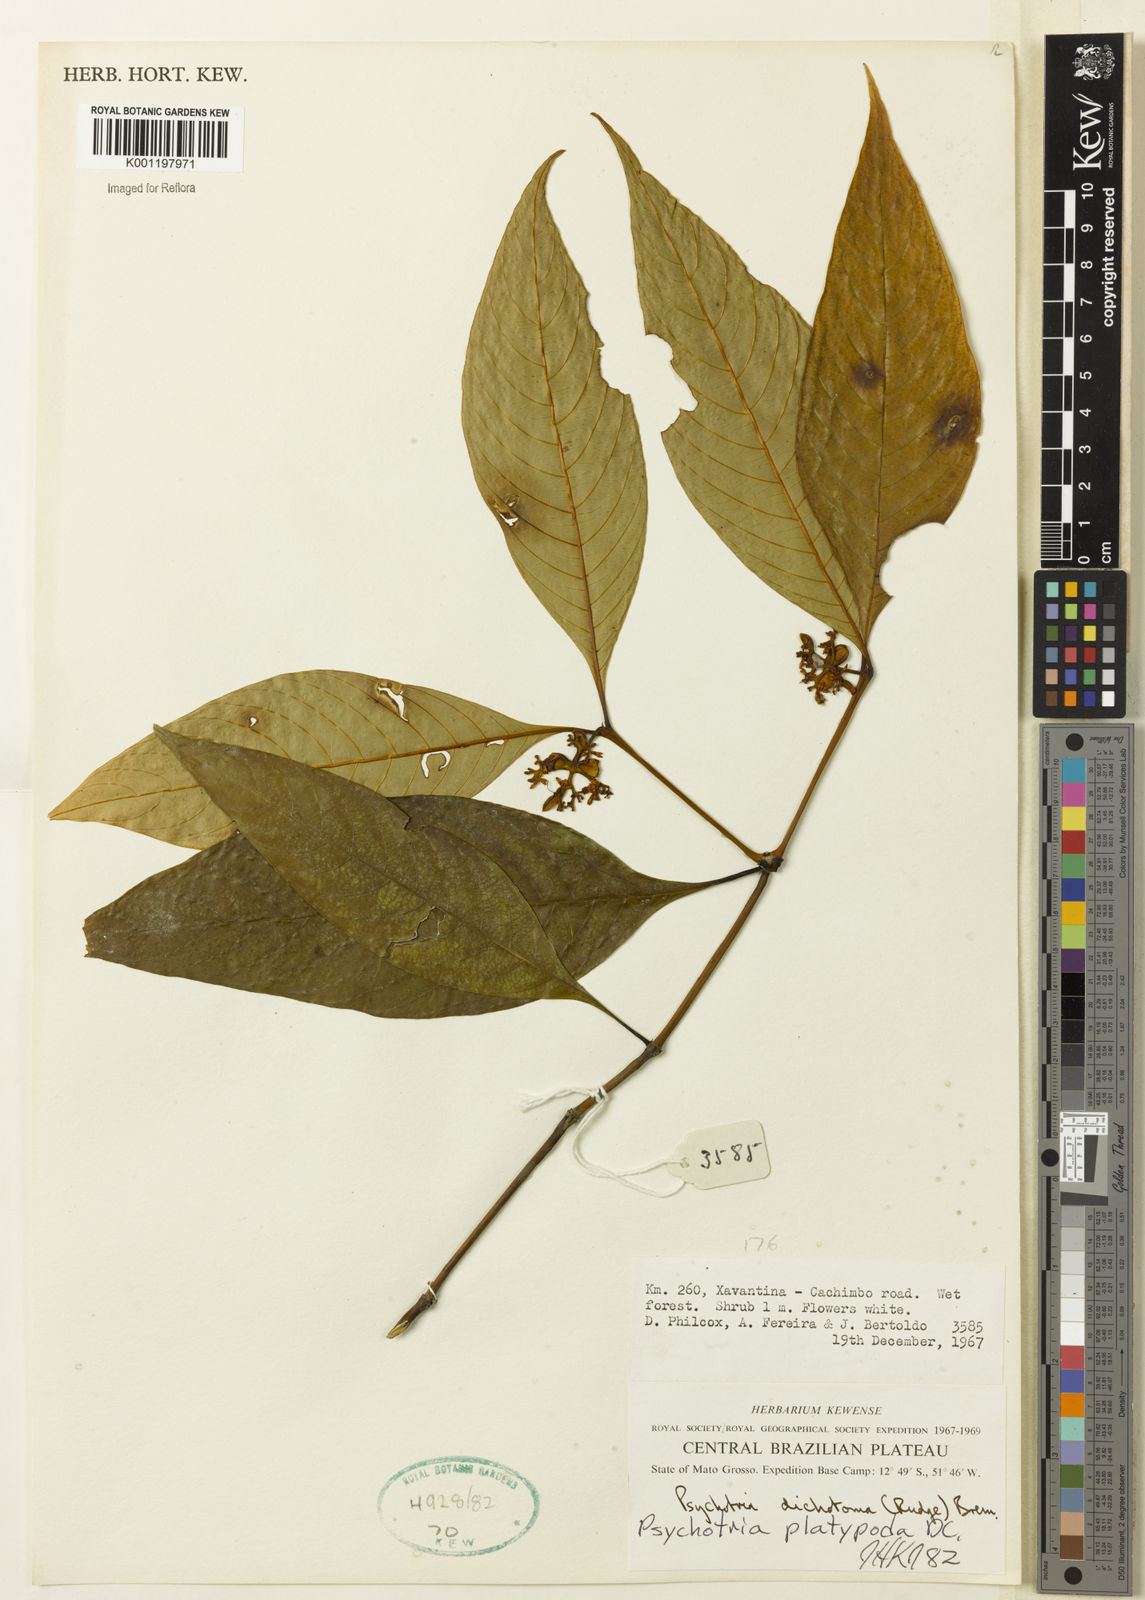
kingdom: Plantae
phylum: Tracheophyta
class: Magnoliopsida
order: Gentianales
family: Rubiaceae
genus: Palicourea
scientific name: Palicourea dichotoma
